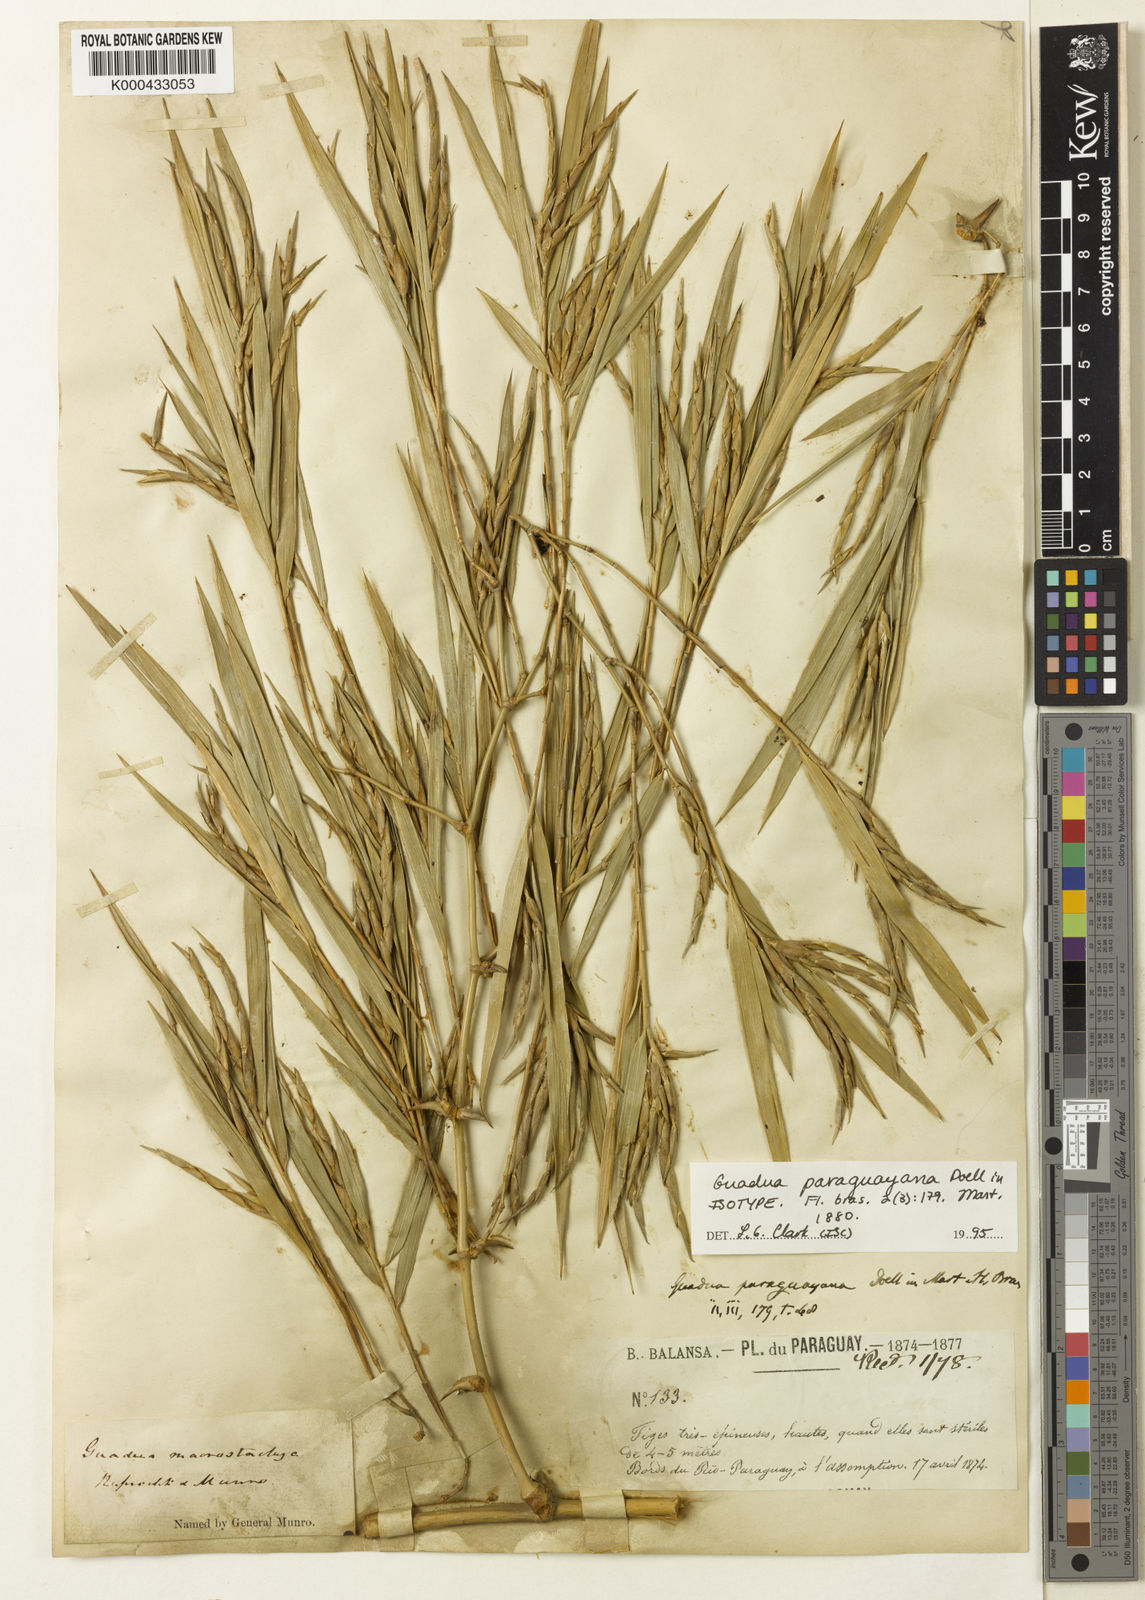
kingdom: Plantae
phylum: Tracheophyta
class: Liliopsida
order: Poales
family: Poaceae
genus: Guadua
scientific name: Guadua
